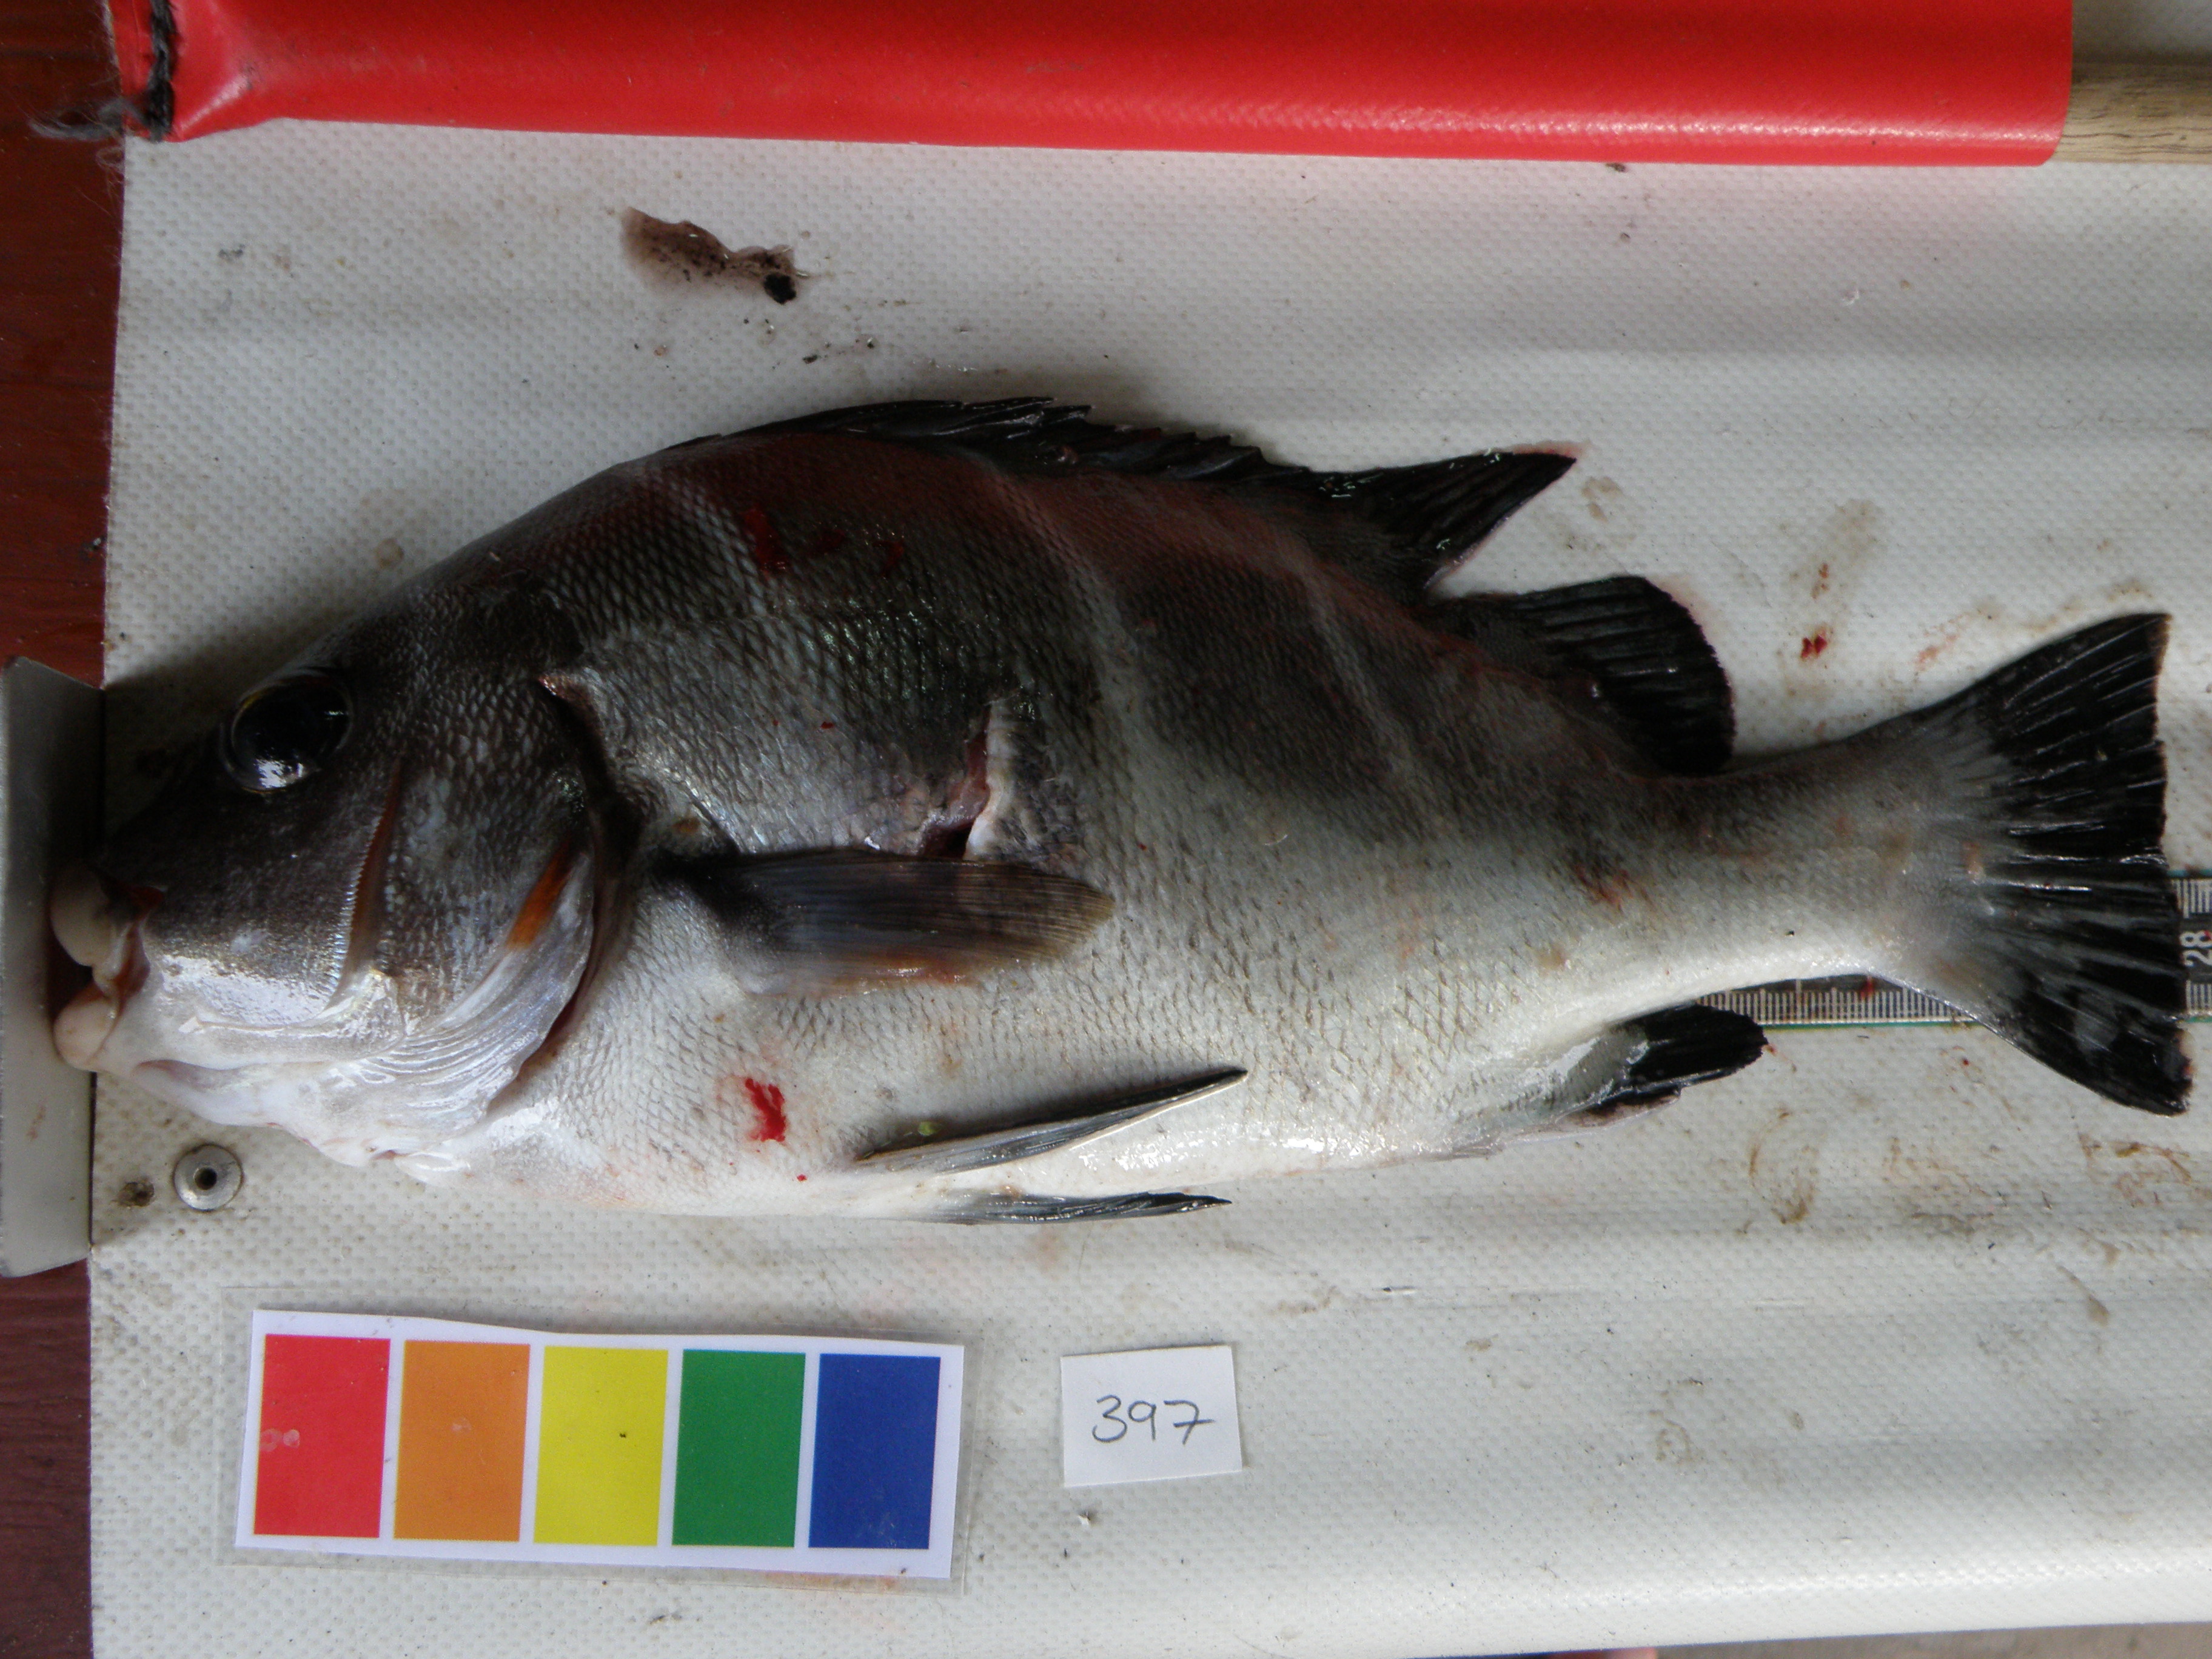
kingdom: Animalia
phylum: Chordata
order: Perciformes
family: Haemulidae
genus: Plectorhinchus
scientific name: Plectorhinchus playfairi
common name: Whitebarred rubberlip
